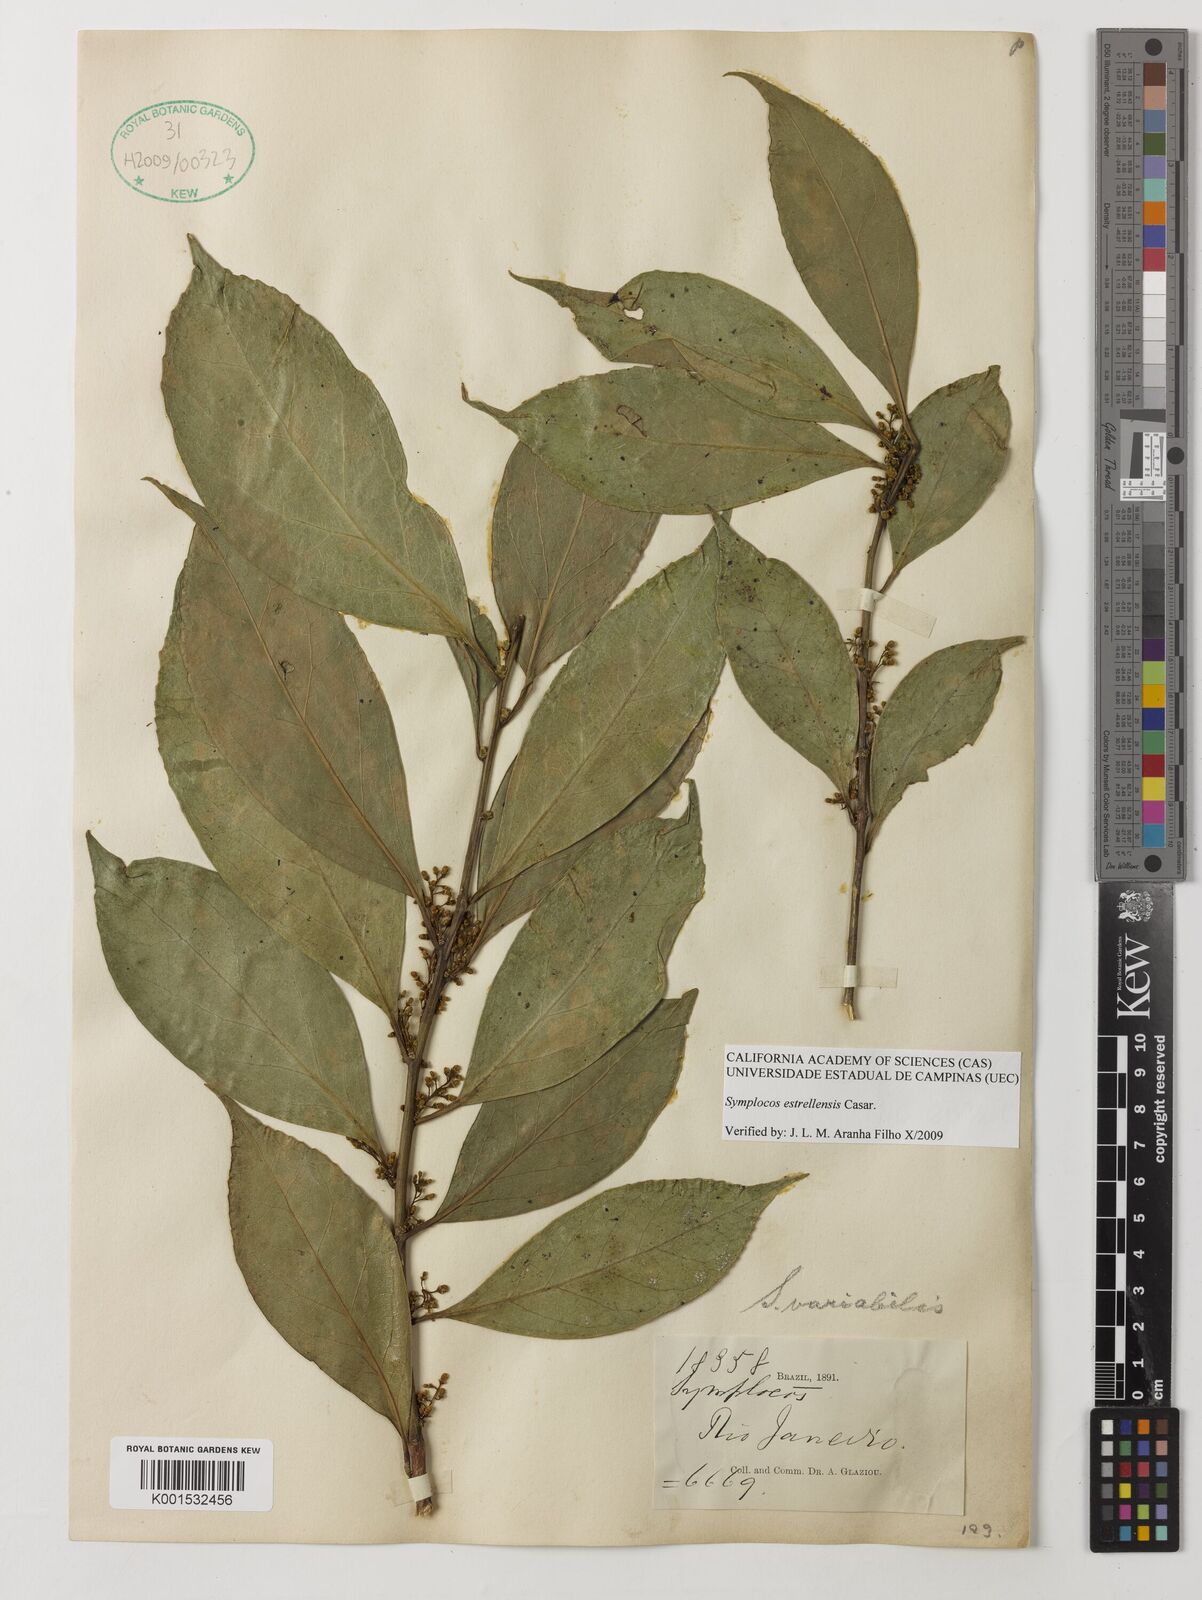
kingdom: Plantae
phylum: Tracheophyta
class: Magnoliopsida
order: Ericales
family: Symplocaceae
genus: Symplocos
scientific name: Symplocos estrellensis
